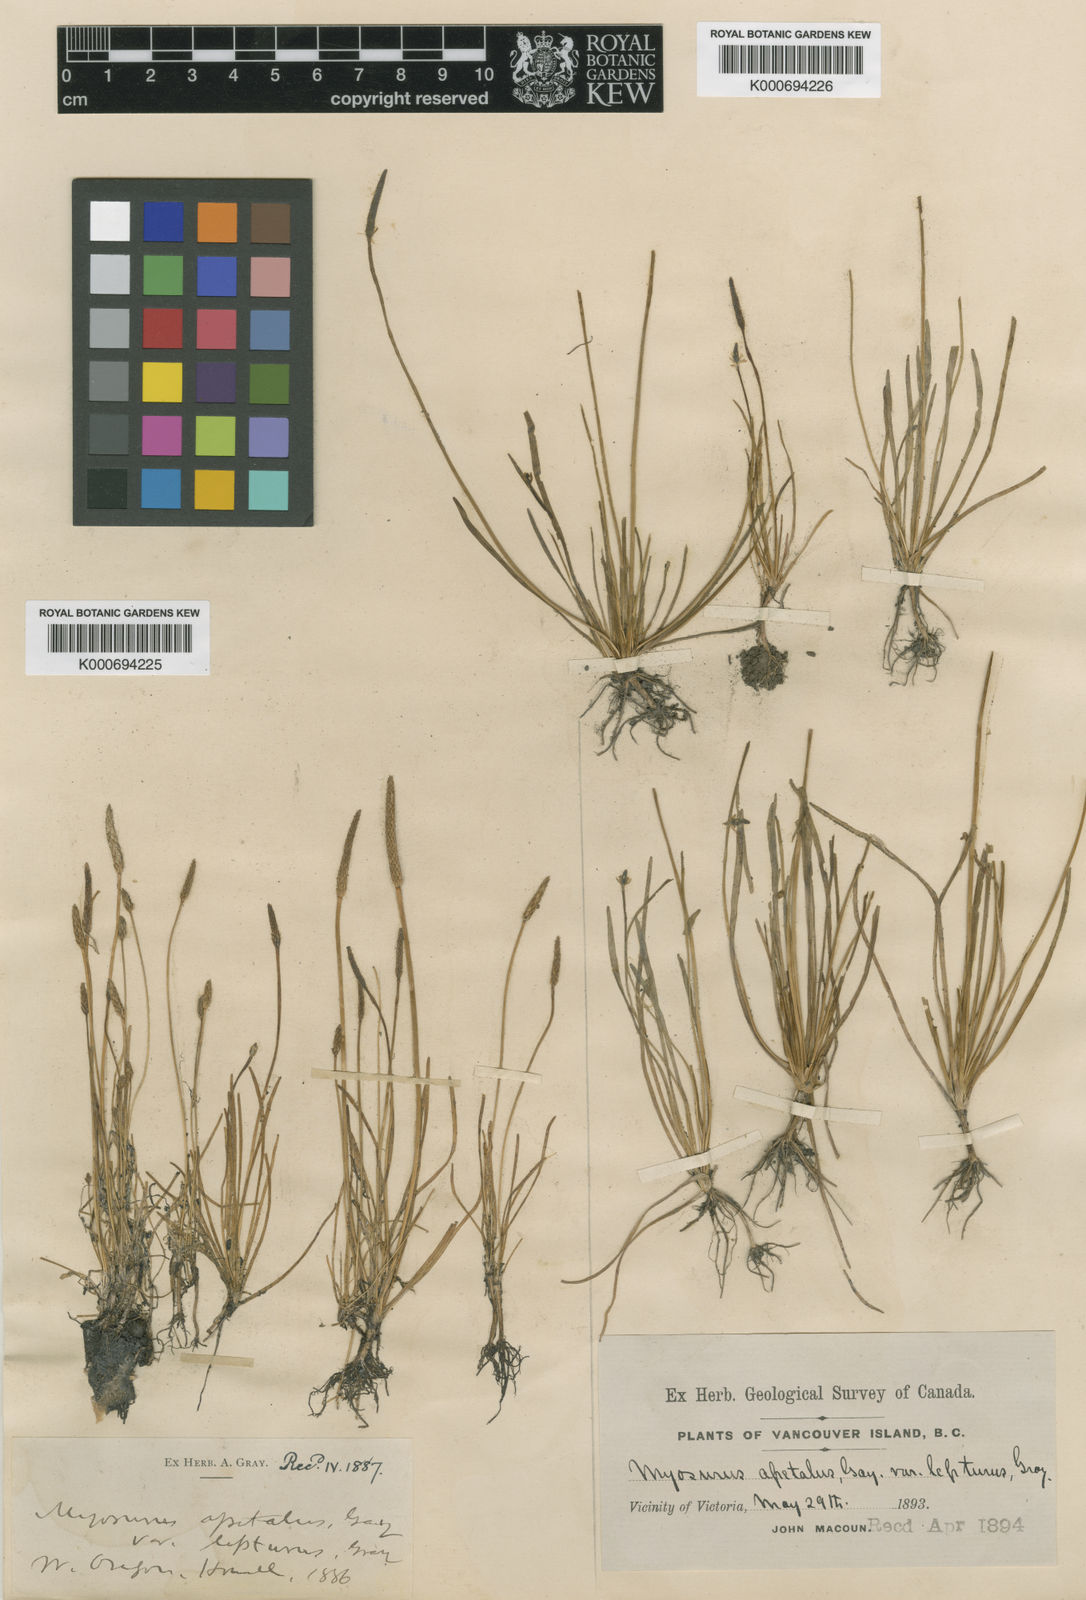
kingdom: Plantae
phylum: Tracheophyta
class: Magnoliopsida
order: Ranunculales
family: Ranunculaceae
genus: Myosurus
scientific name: Myosurus minimus
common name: Mousetail
